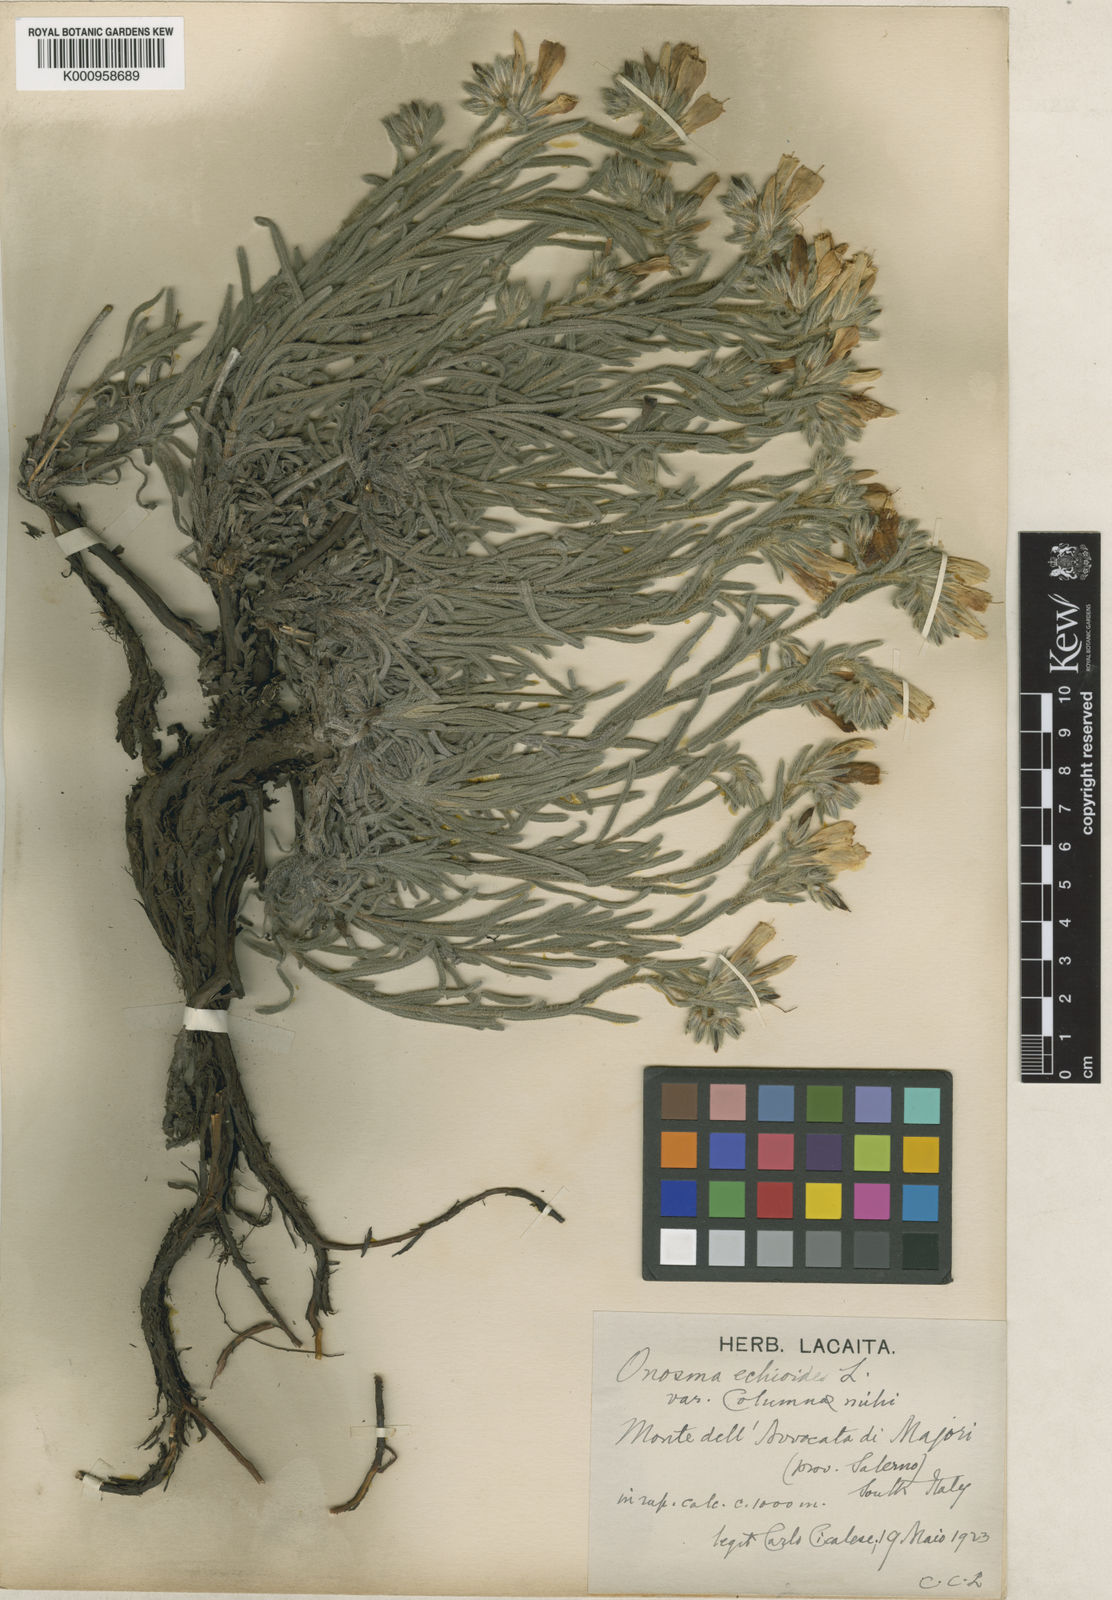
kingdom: Plantae
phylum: Tracheophyta
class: Magnoliopsida
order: Boraginales
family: Boraginaceae
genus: Onosma
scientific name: Onosma echioides
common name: Goldendrop
